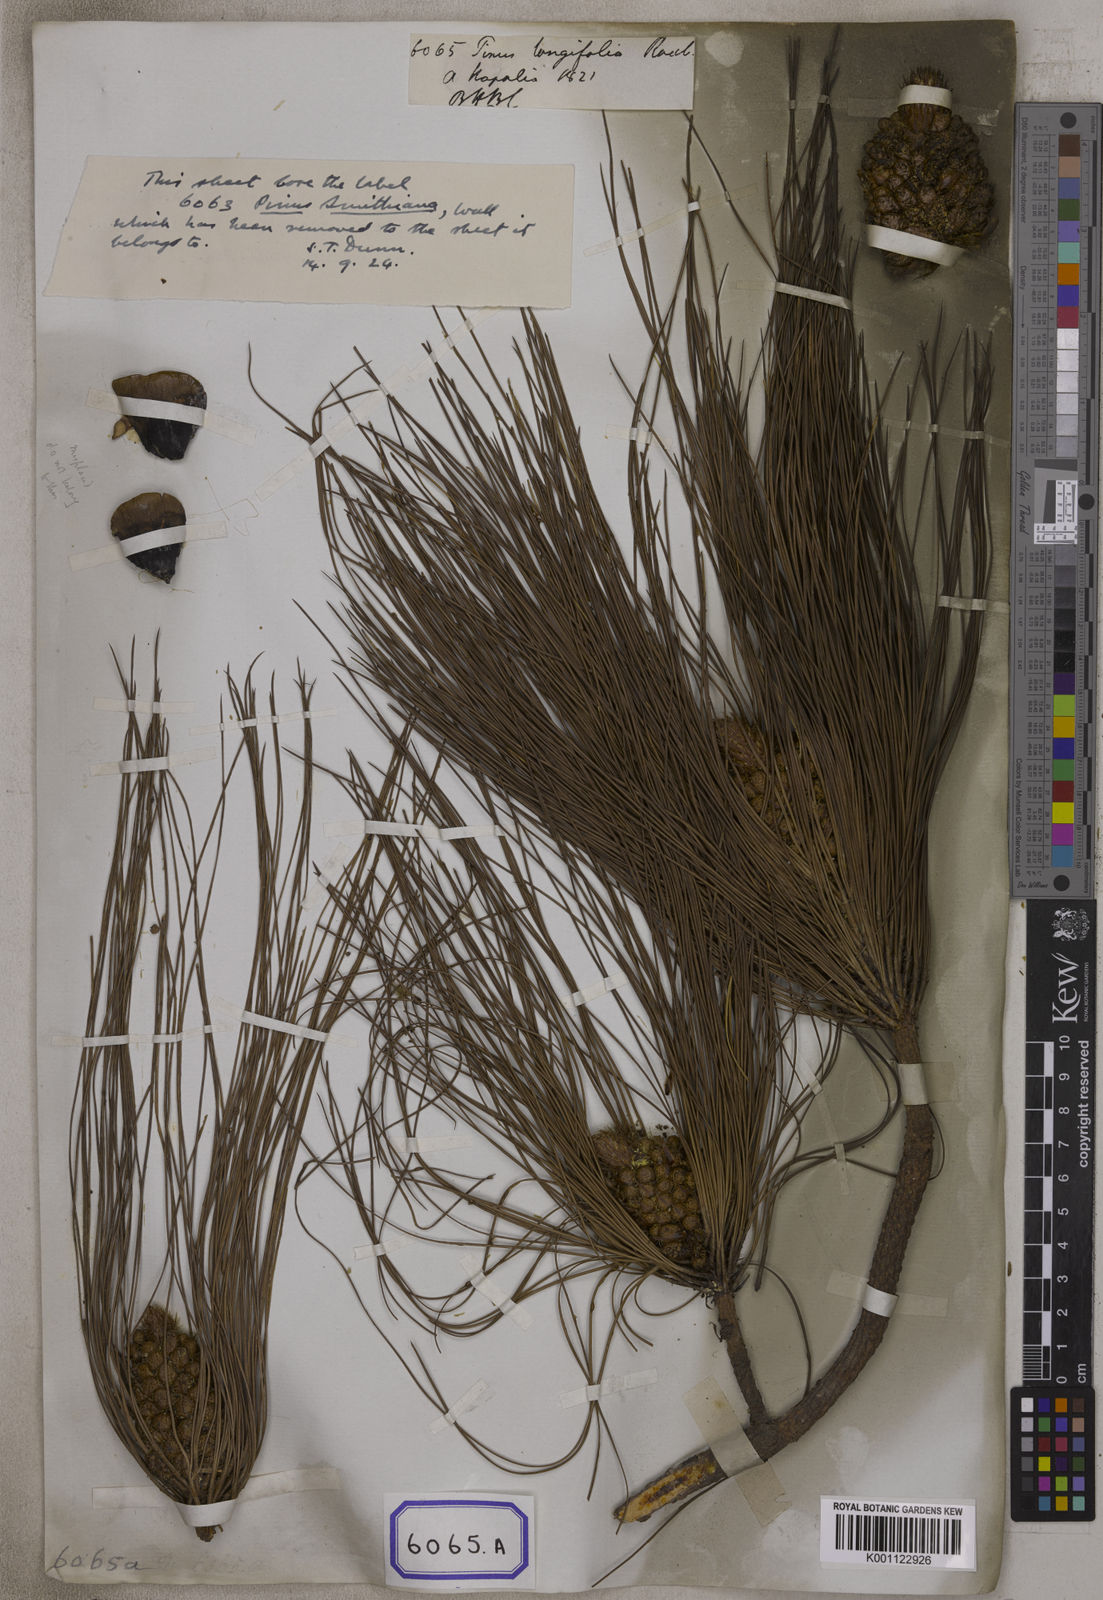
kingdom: Plantae
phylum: Tracheophyta
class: Pinopsida
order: Pinales
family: Pinaceae
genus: Pinus
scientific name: Pinus
